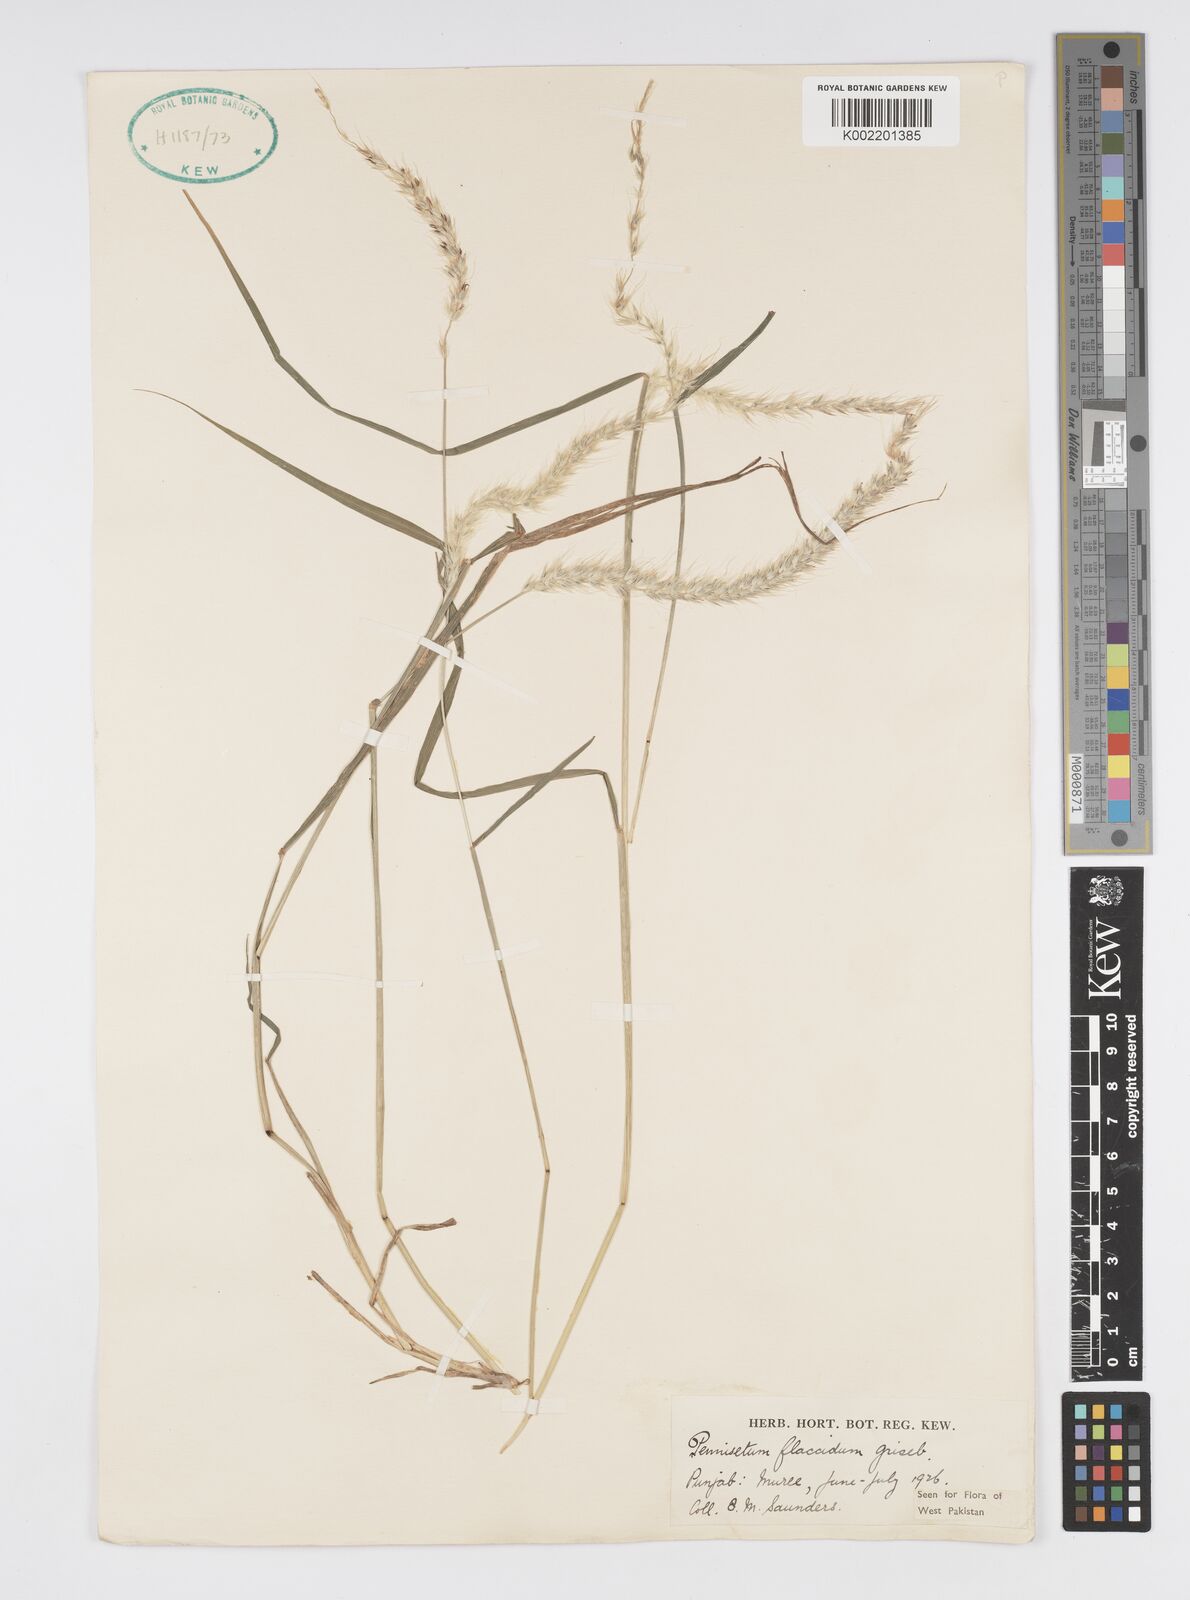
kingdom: Plantae
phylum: Tracheophyta
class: Liliopsida
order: Poales
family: Poaceae
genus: Cenchrus
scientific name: Cenchrus flaccidus
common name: Flaccid grass
